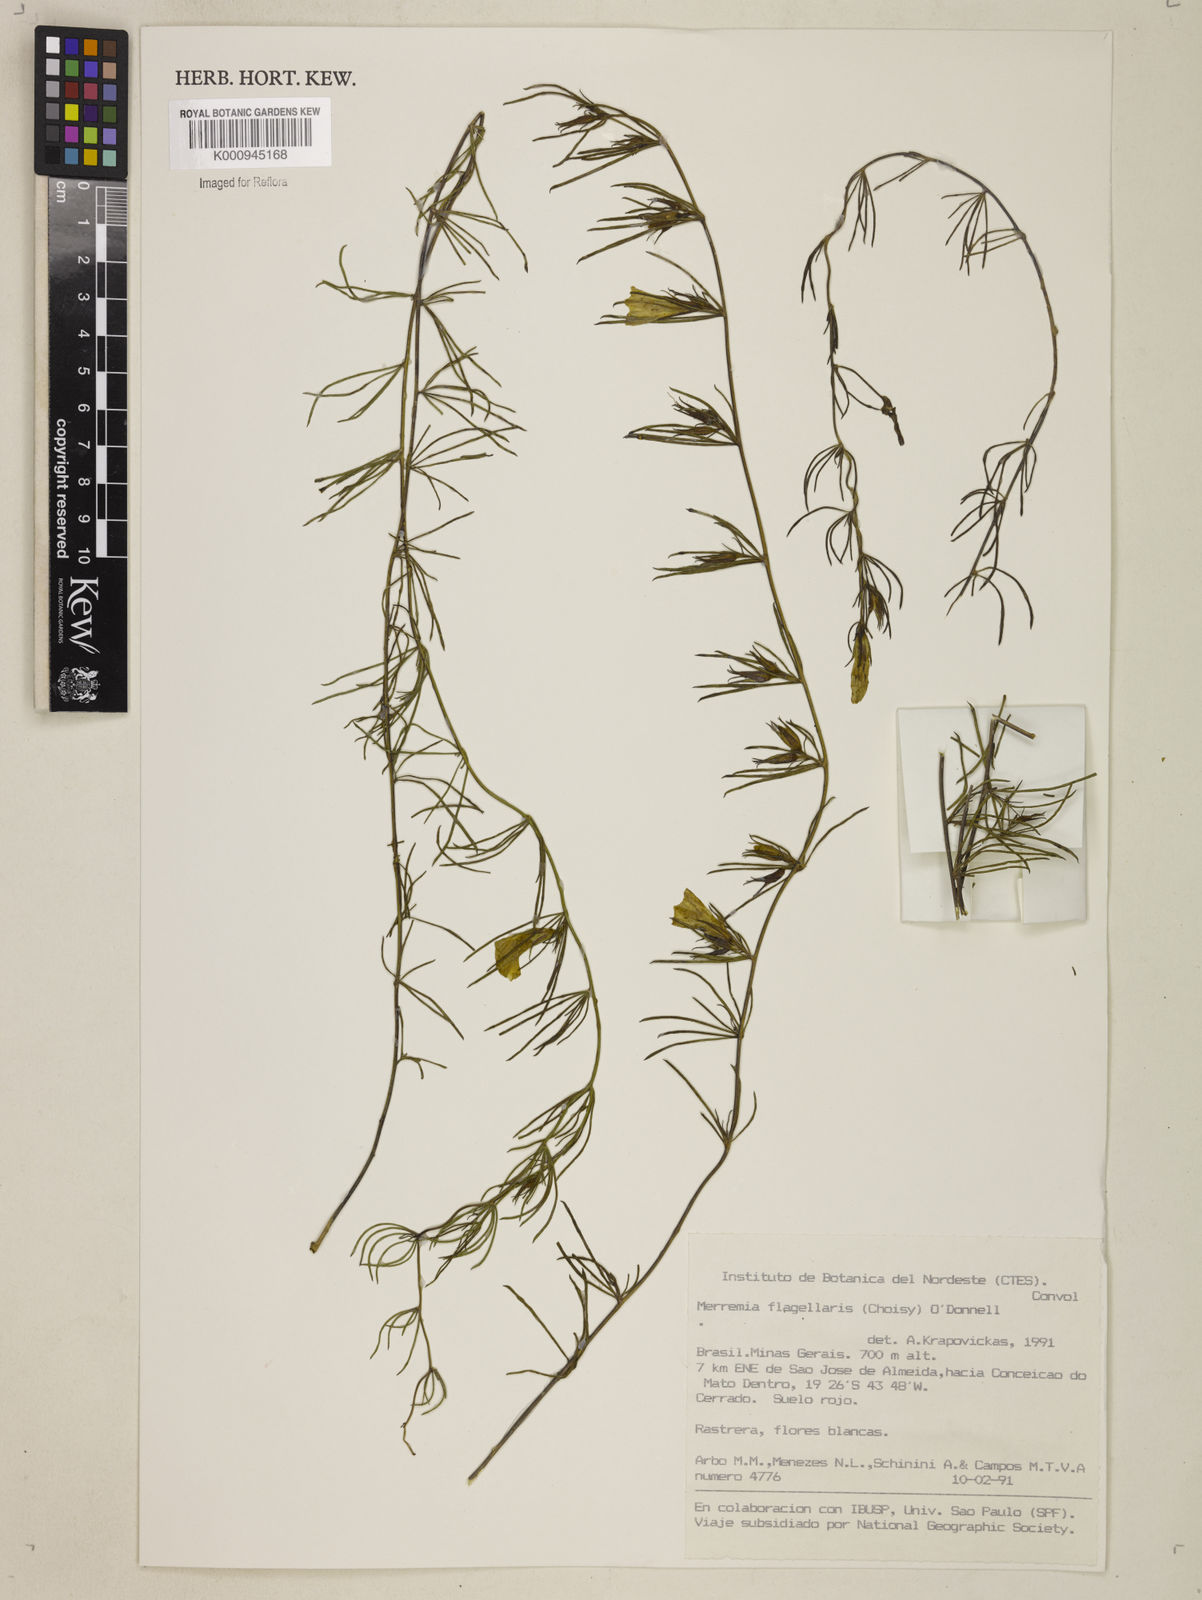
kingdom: Plantae
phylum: Tracheophyta
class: Magnoliopsida
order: Solanales
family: Convolvulaceae
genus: Distimake
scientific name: Distimake flagellaris
